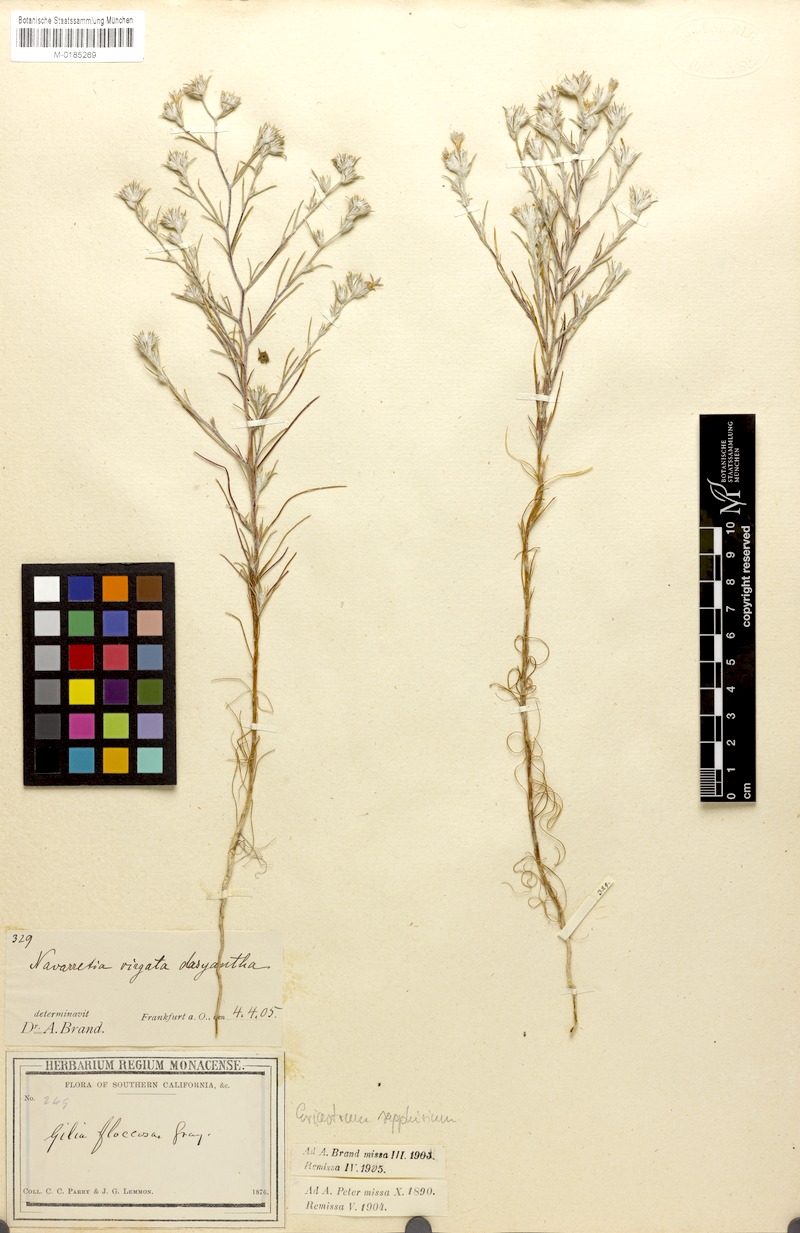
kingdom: Plantae
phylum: Tracheophyta
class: Magnoliopsida
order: Ericales
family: Polemoniaceae
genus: Eriastrum
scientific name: Eriastrum sapphirinum
